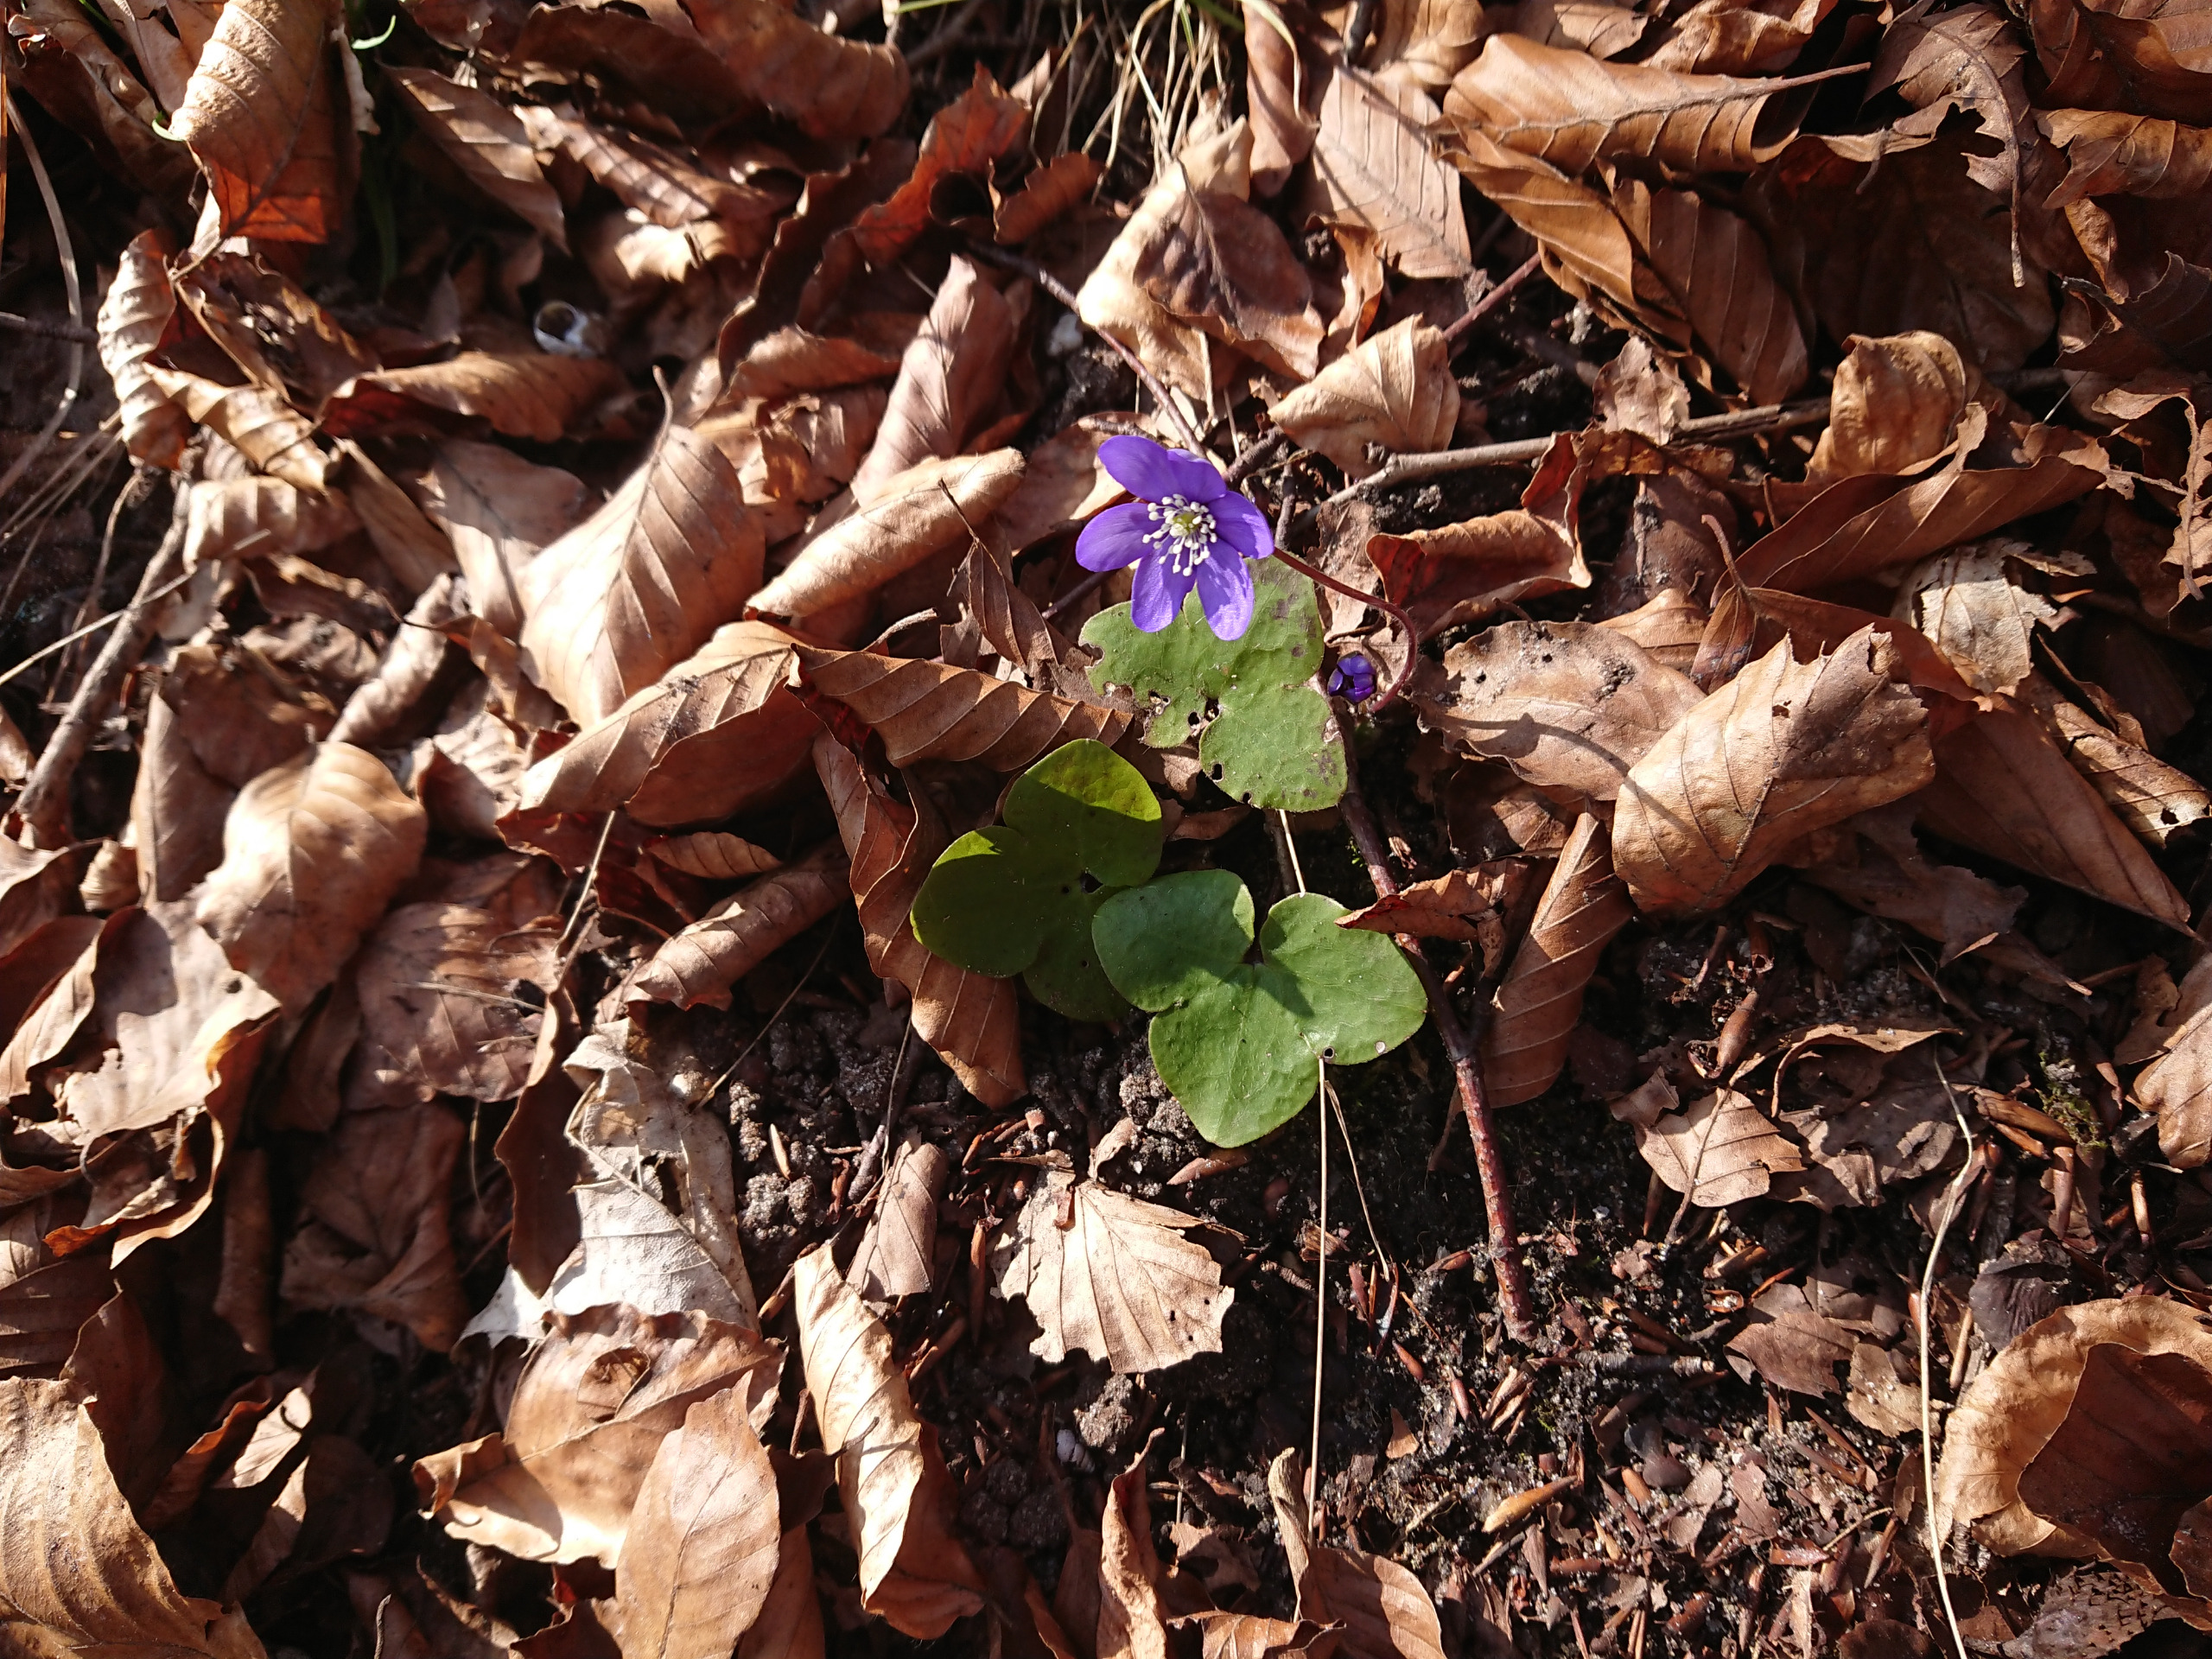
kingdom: Plantae
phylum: Tracheophyta
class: Magnoliopsida
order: Ranunculales
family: Ranunculaceae
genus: Hepatica
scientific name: Hepatica nobilis
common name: Blå anemone
